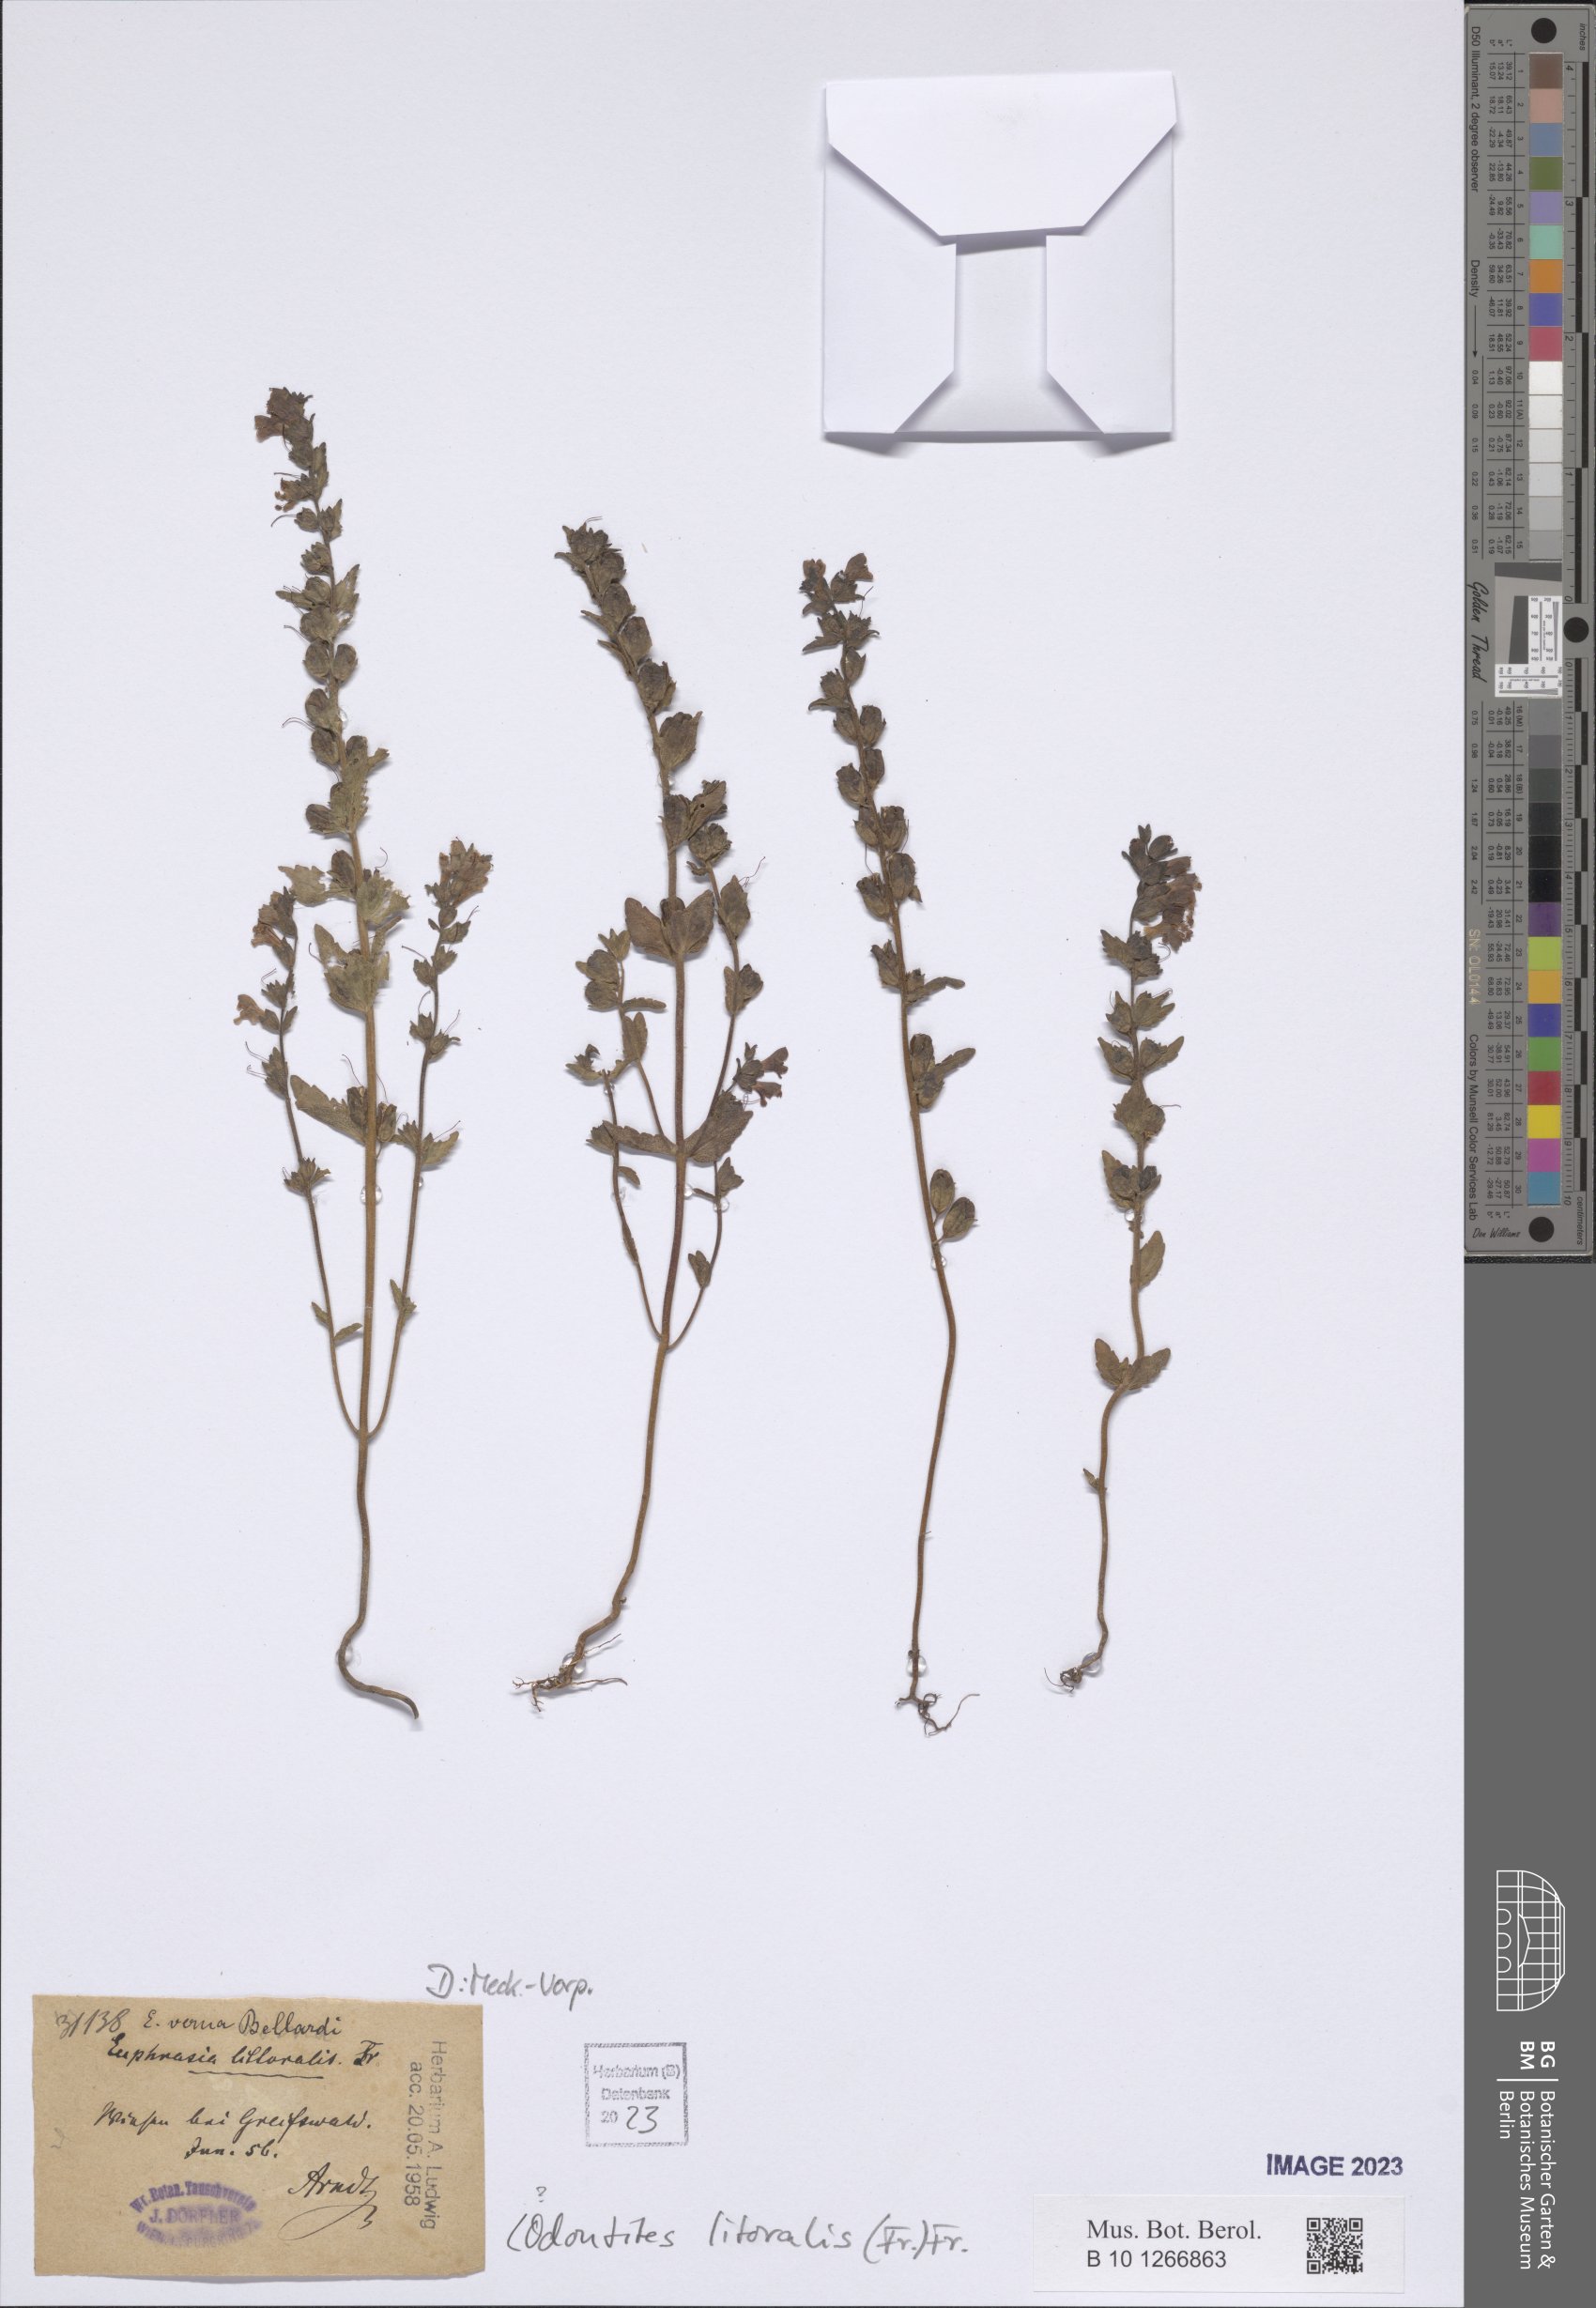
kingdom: Plantae
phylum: Tracheophyta
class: Magnoliopsida
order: Lamiales
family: Orobanchaceae
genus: Odontites
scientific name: Odontites litoralis
